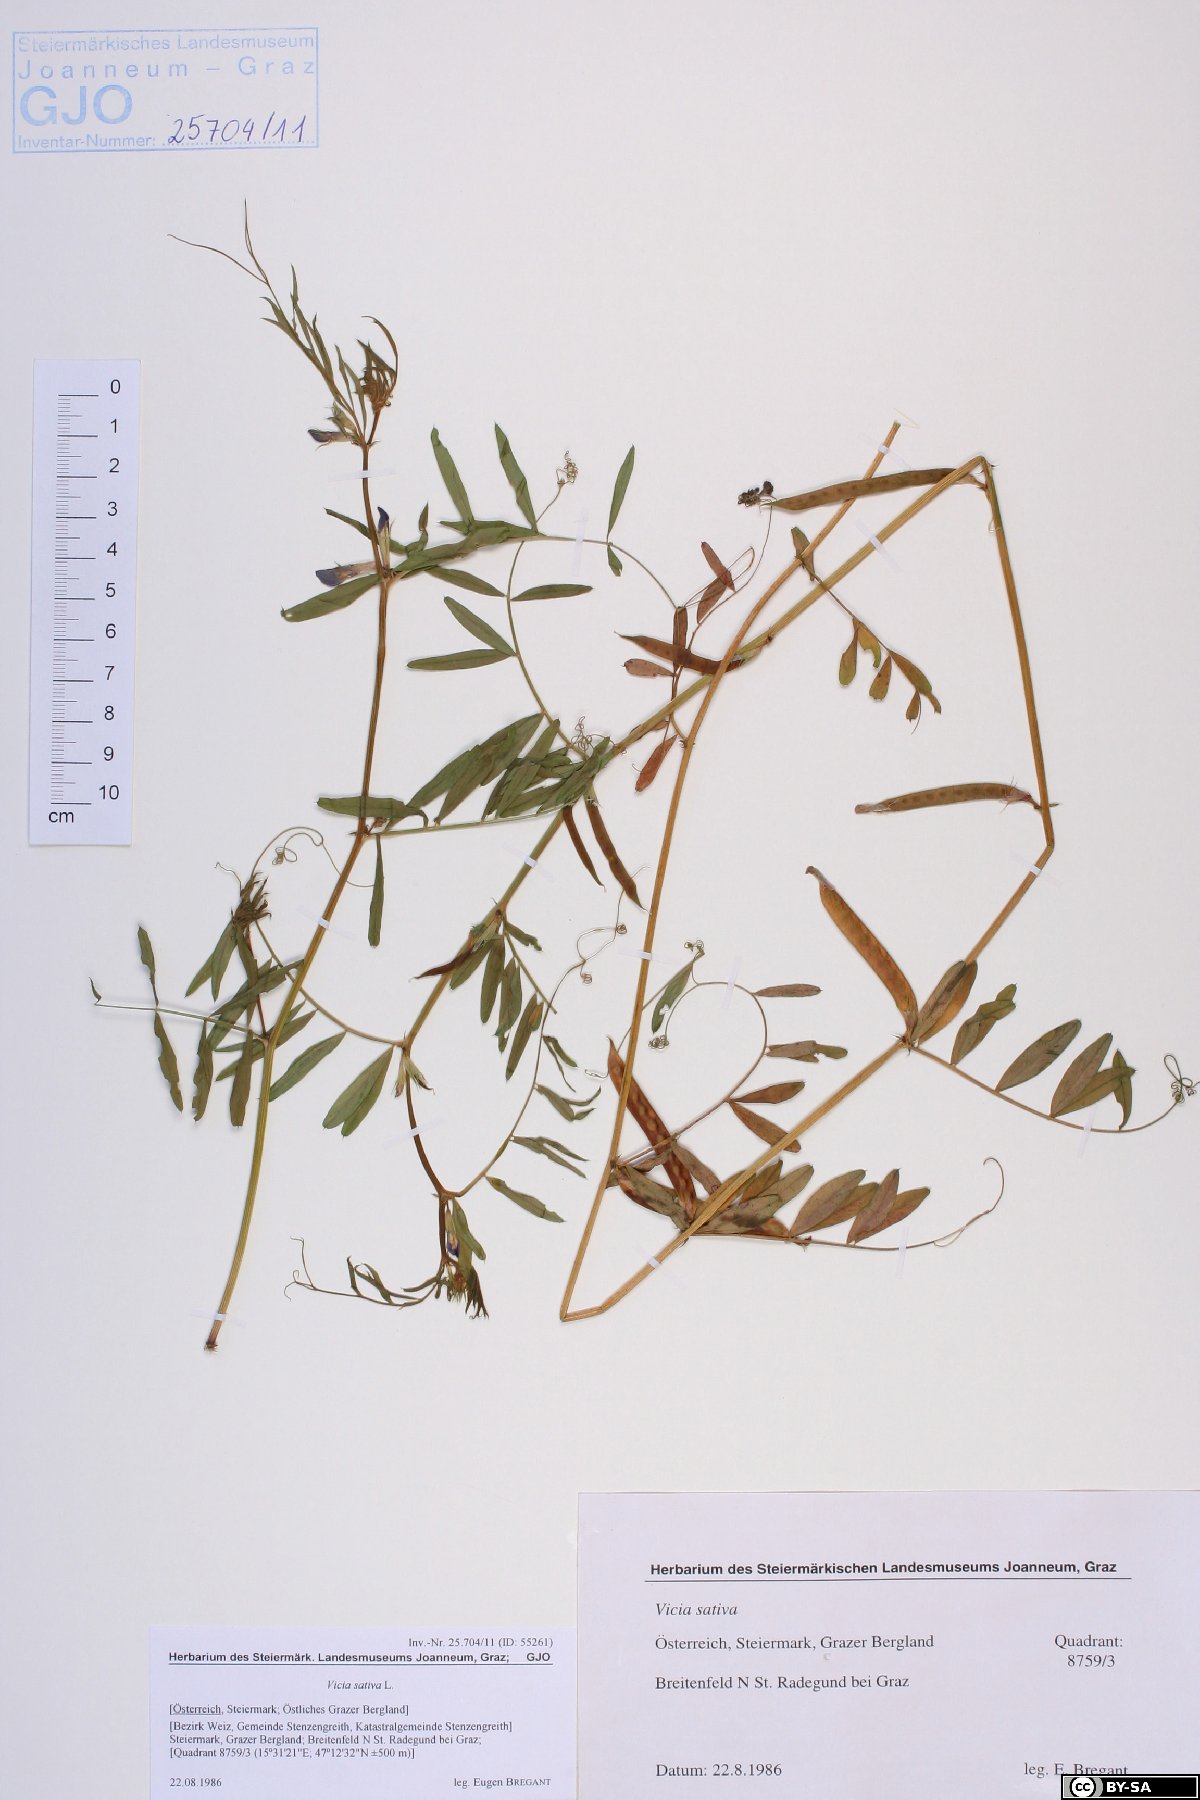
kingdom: Plantae
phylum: Tracheophyta
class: Magnoliopsida
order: Fabales
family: Fabaceae
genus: Vicia
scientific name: Vicia sativa
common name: Garden vetch
